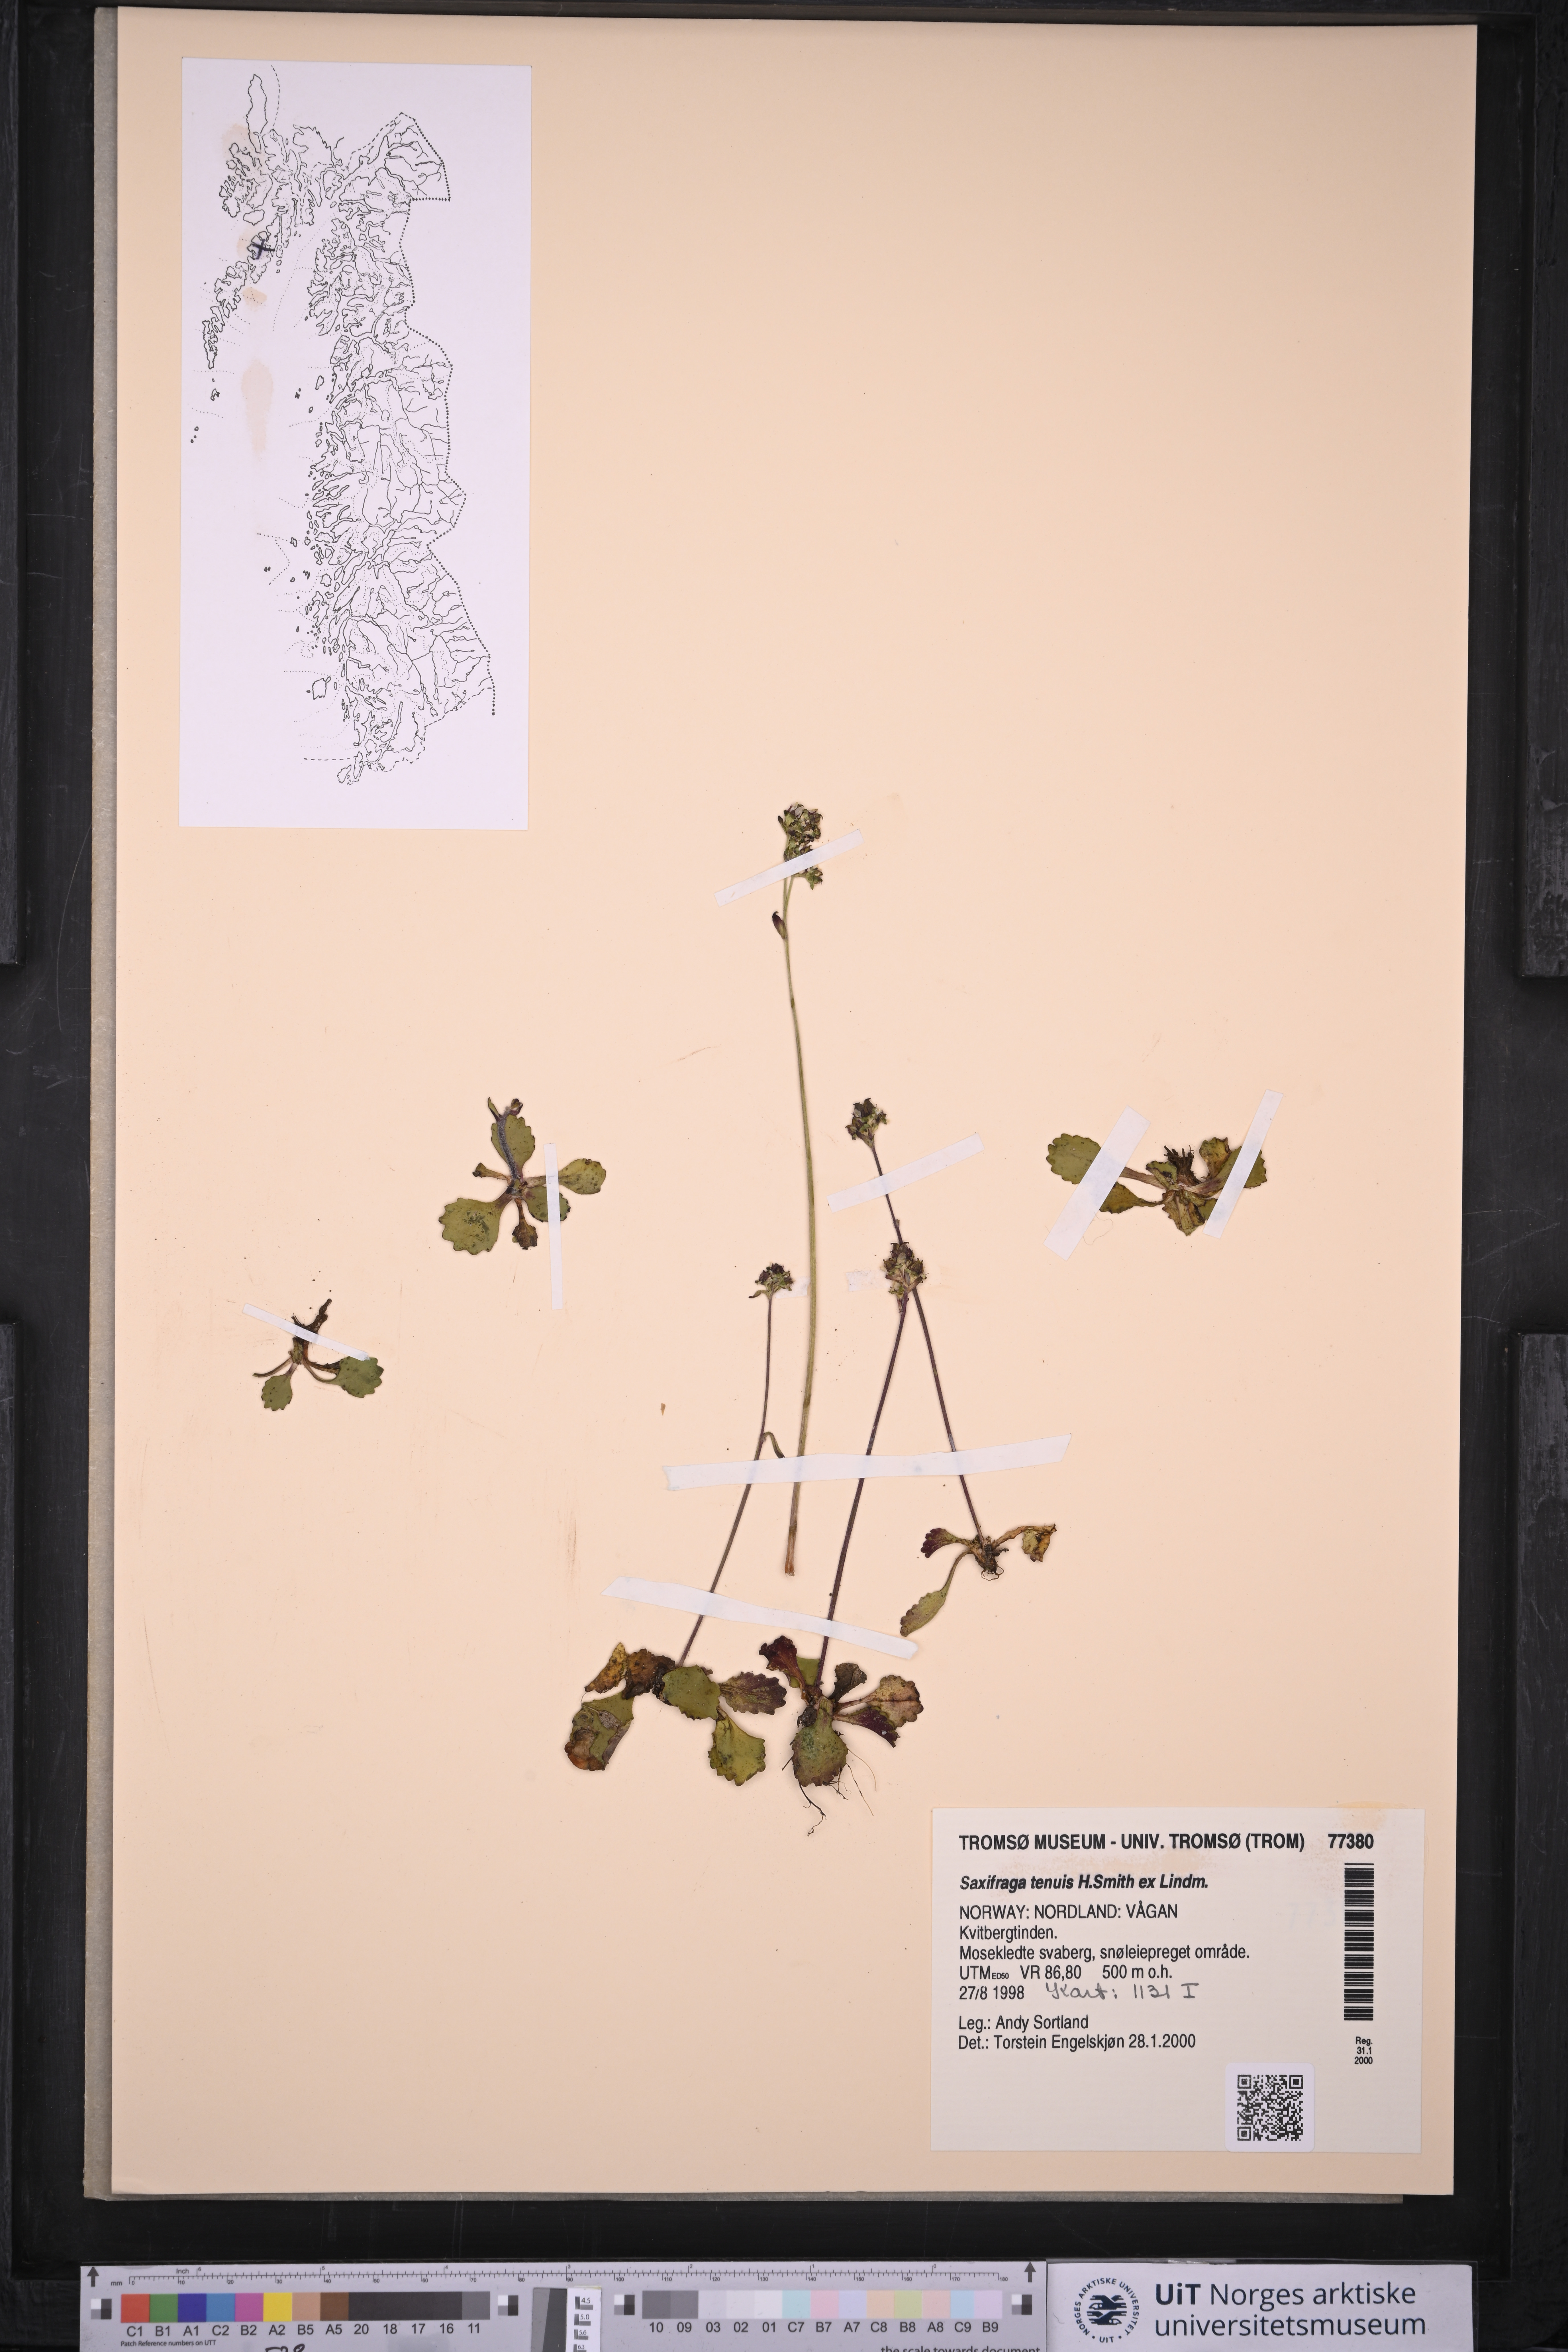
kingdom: Plantae
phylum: Tracheophyta
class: Magnoliopsida
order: Saxifragales
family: Saxifragaceae
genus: Micranthes
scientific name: Micranthes tenuis
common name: Ottertail pass saxifrage
